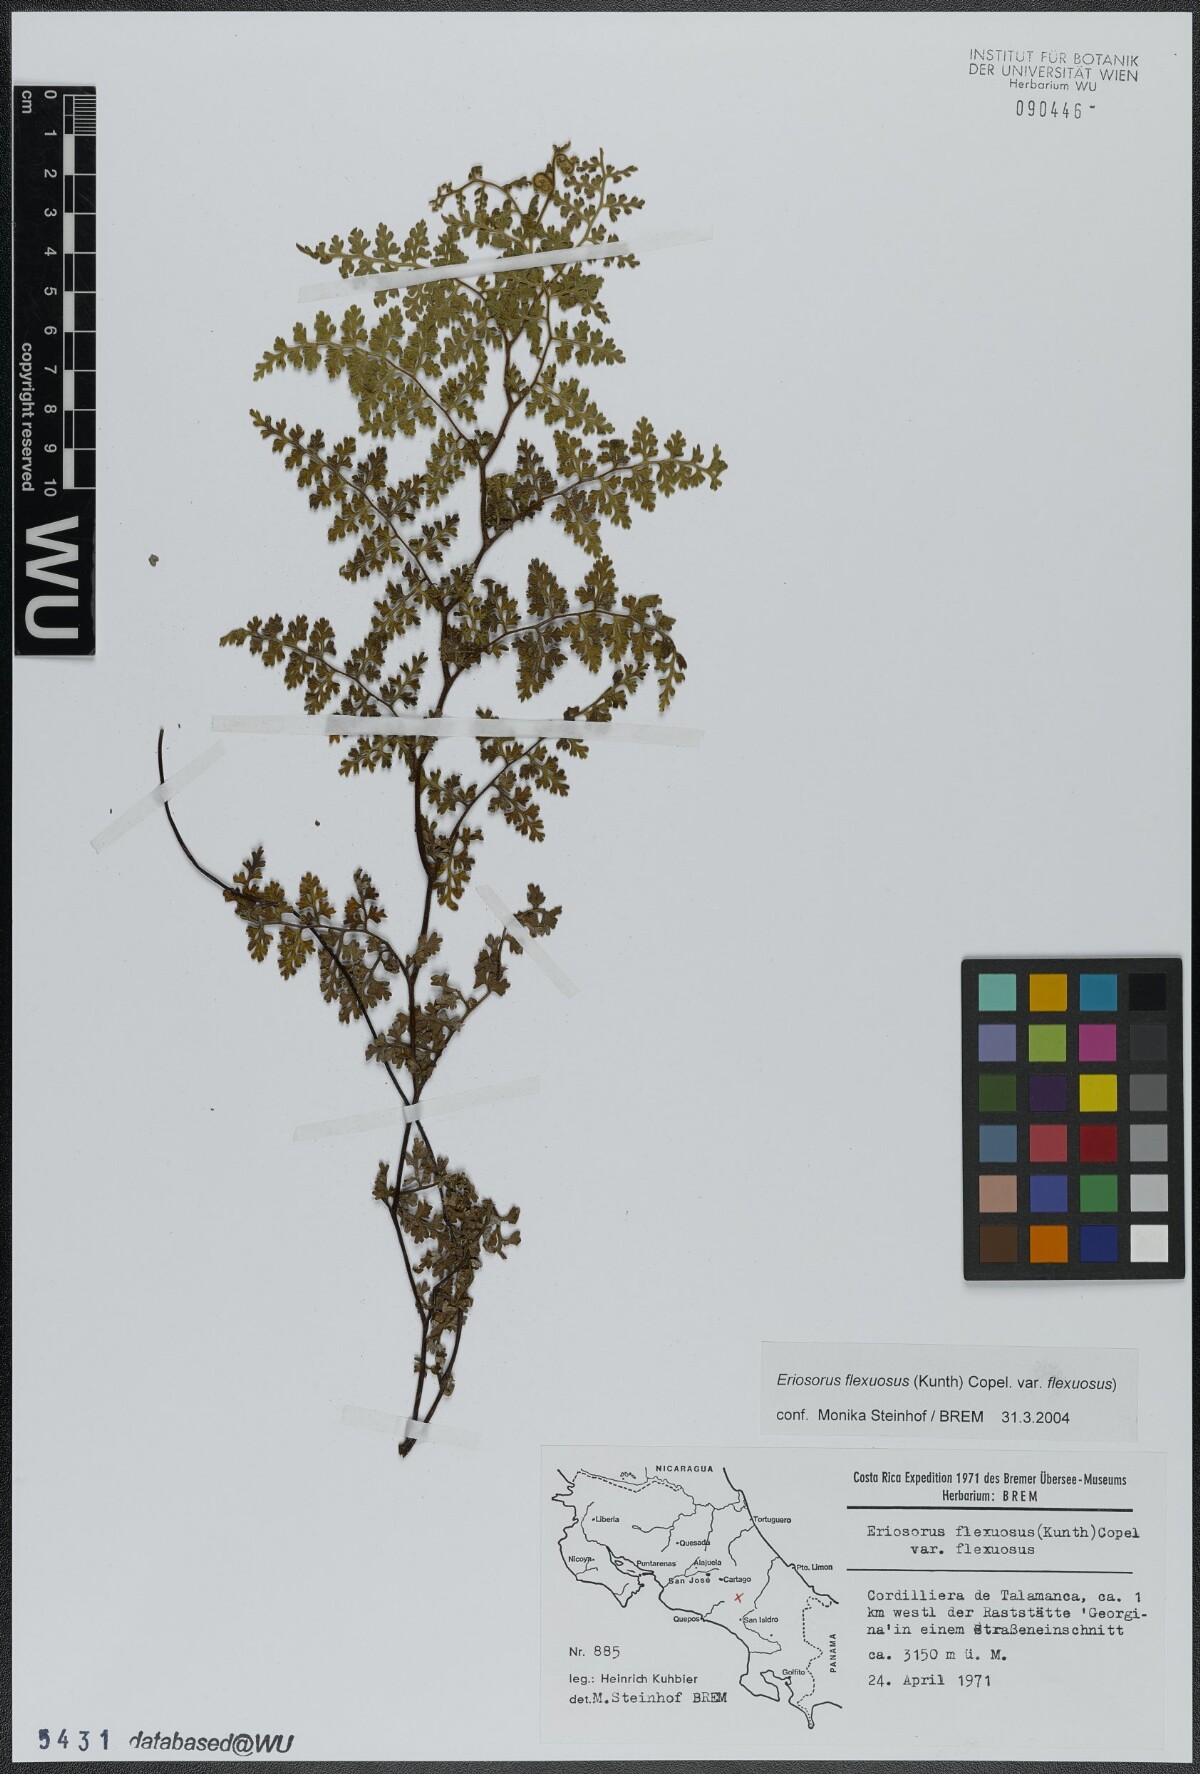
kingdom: Plantae
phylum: Tracheophyta
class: Polypodiopsida
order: Polypodiales
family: Pteridaceae
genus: Jamesonia
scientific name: Jamesonia flexuosa
